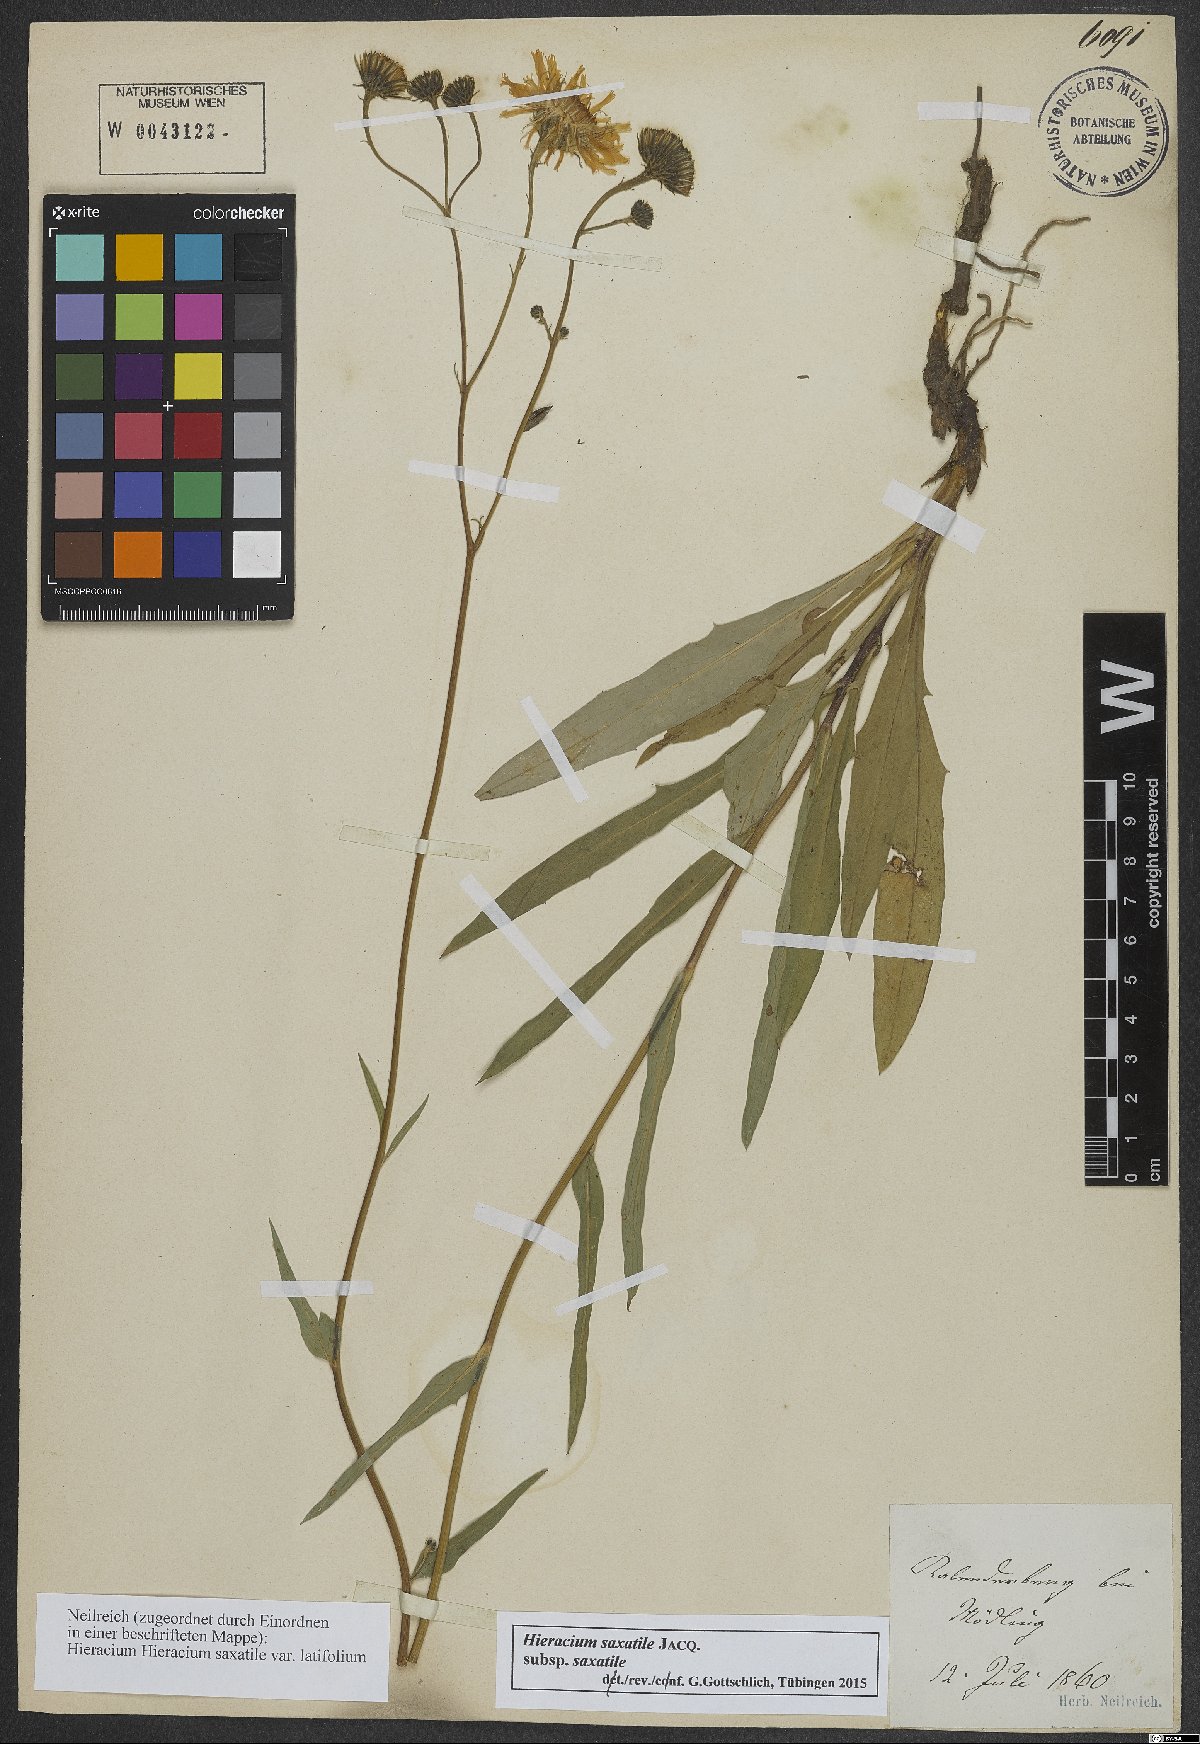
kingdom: Plantae
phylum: Tracheophyta
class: Magnoliopsida
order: Asterales
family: Asteraceae
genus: Hieracium
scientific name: Hieracium saxatile
